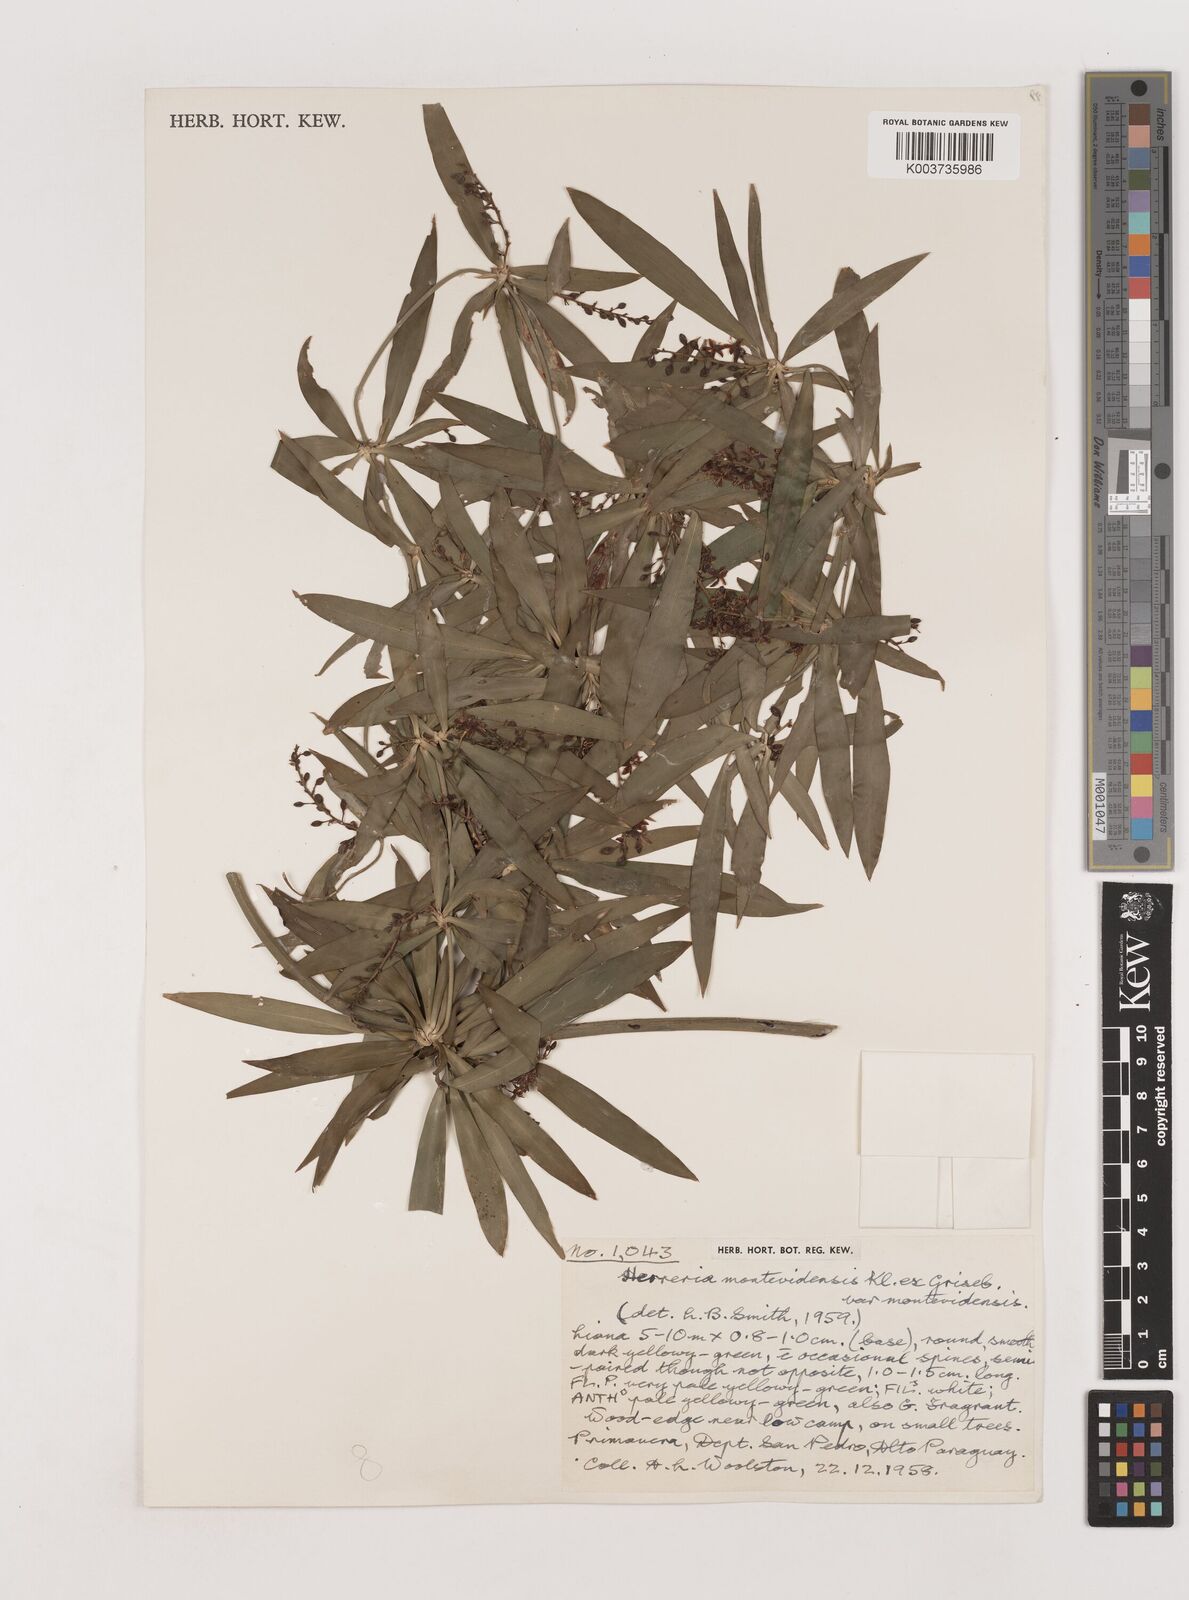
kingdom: Plantae
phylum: Tracheophyta
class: Liliopsida
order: Asparagales
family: Asparagaceae
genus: Herreria
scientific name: Herreria montevidensis
